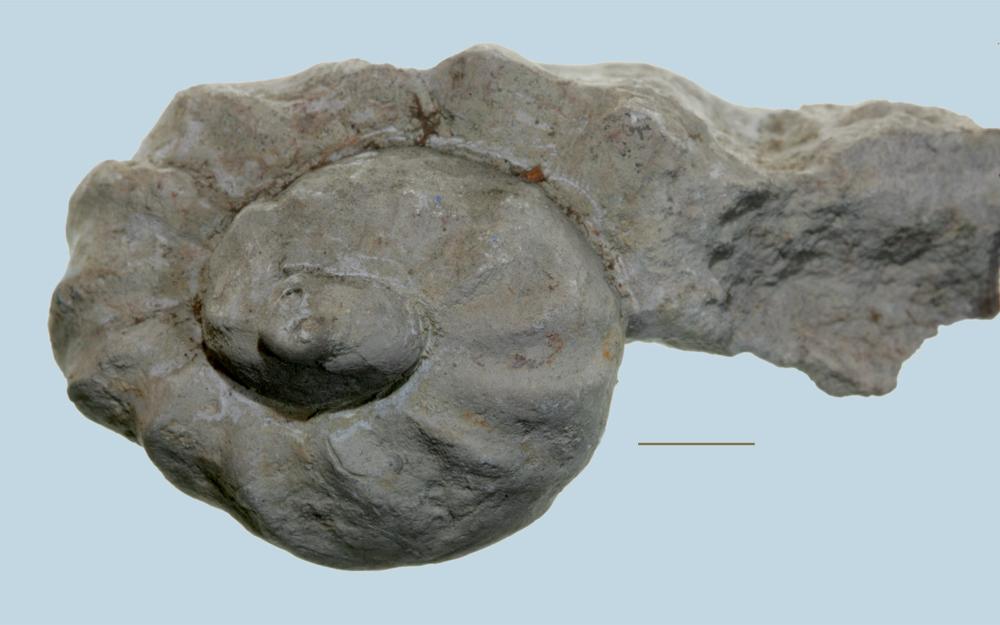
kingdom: Animalia
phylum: Mollusca
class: Gastropoda
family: Holopeidae
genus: Holopea
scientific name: Holopea ampullacea
